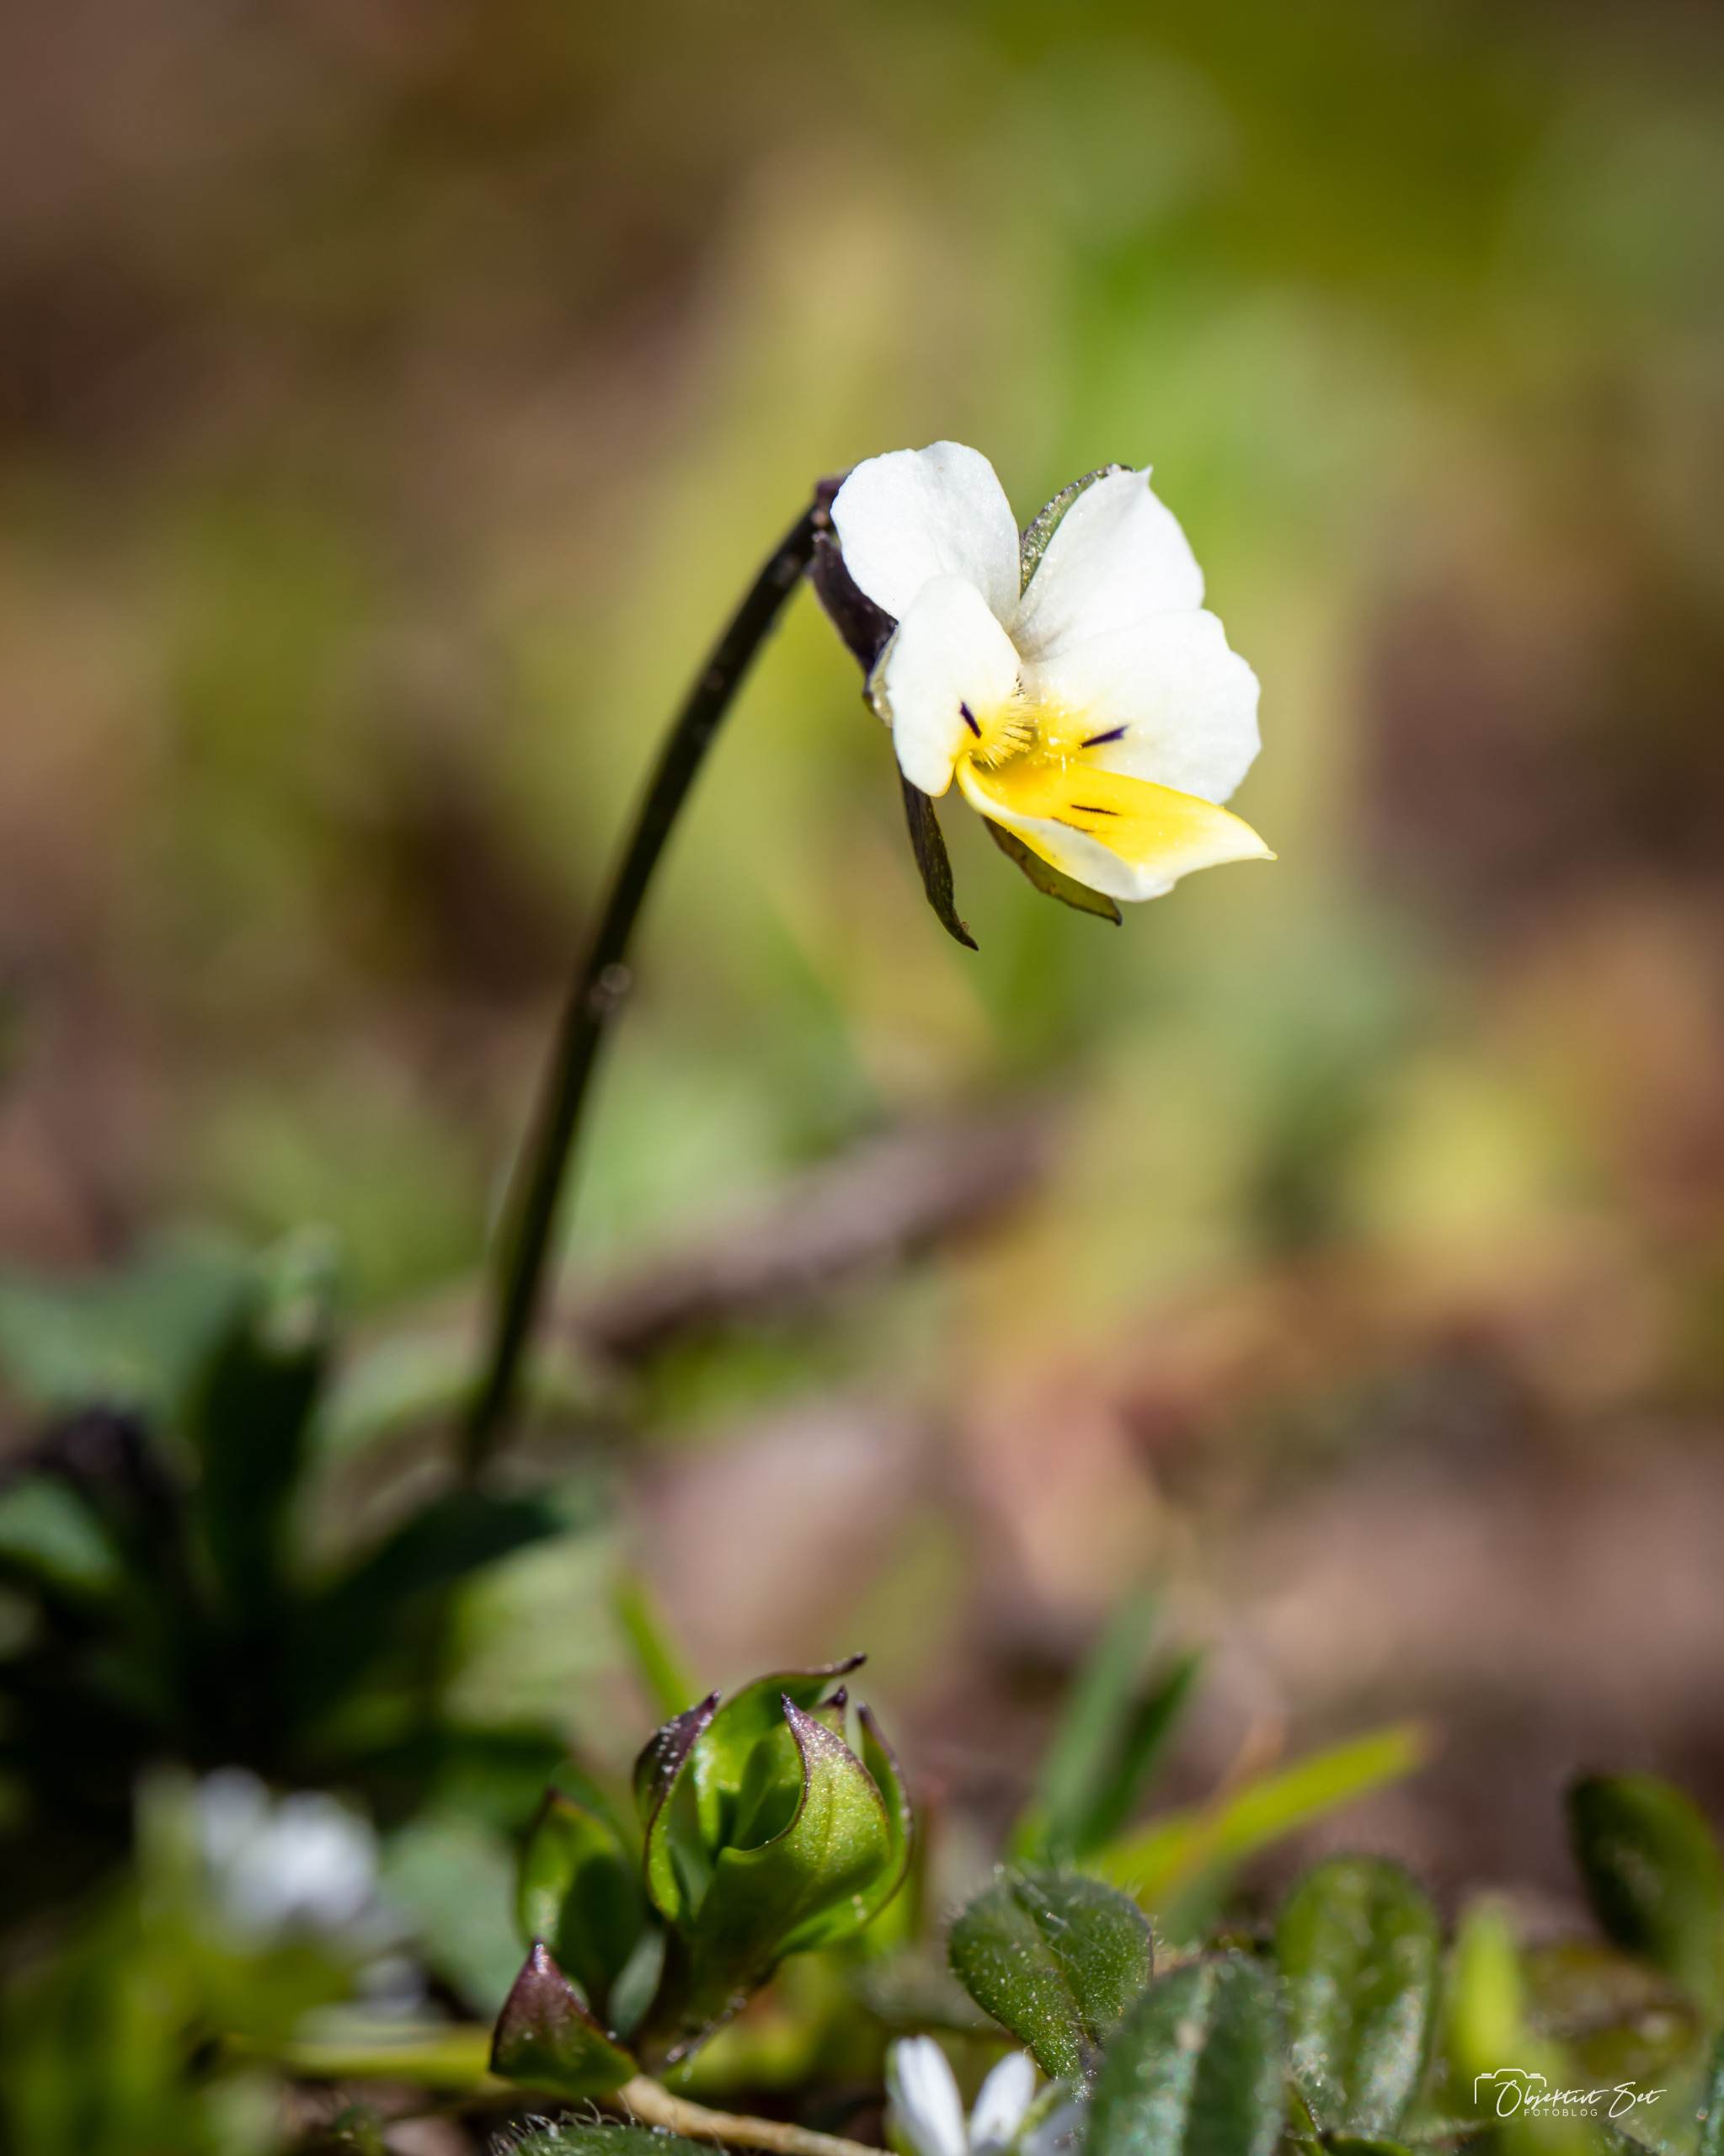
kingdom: Plantae
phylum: Tracheophyta
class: Magnoliopsida
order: Malpighiales
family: Violaceae
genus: Viola
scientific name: Viola arvensis
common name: Ager-stedmoderblomst
